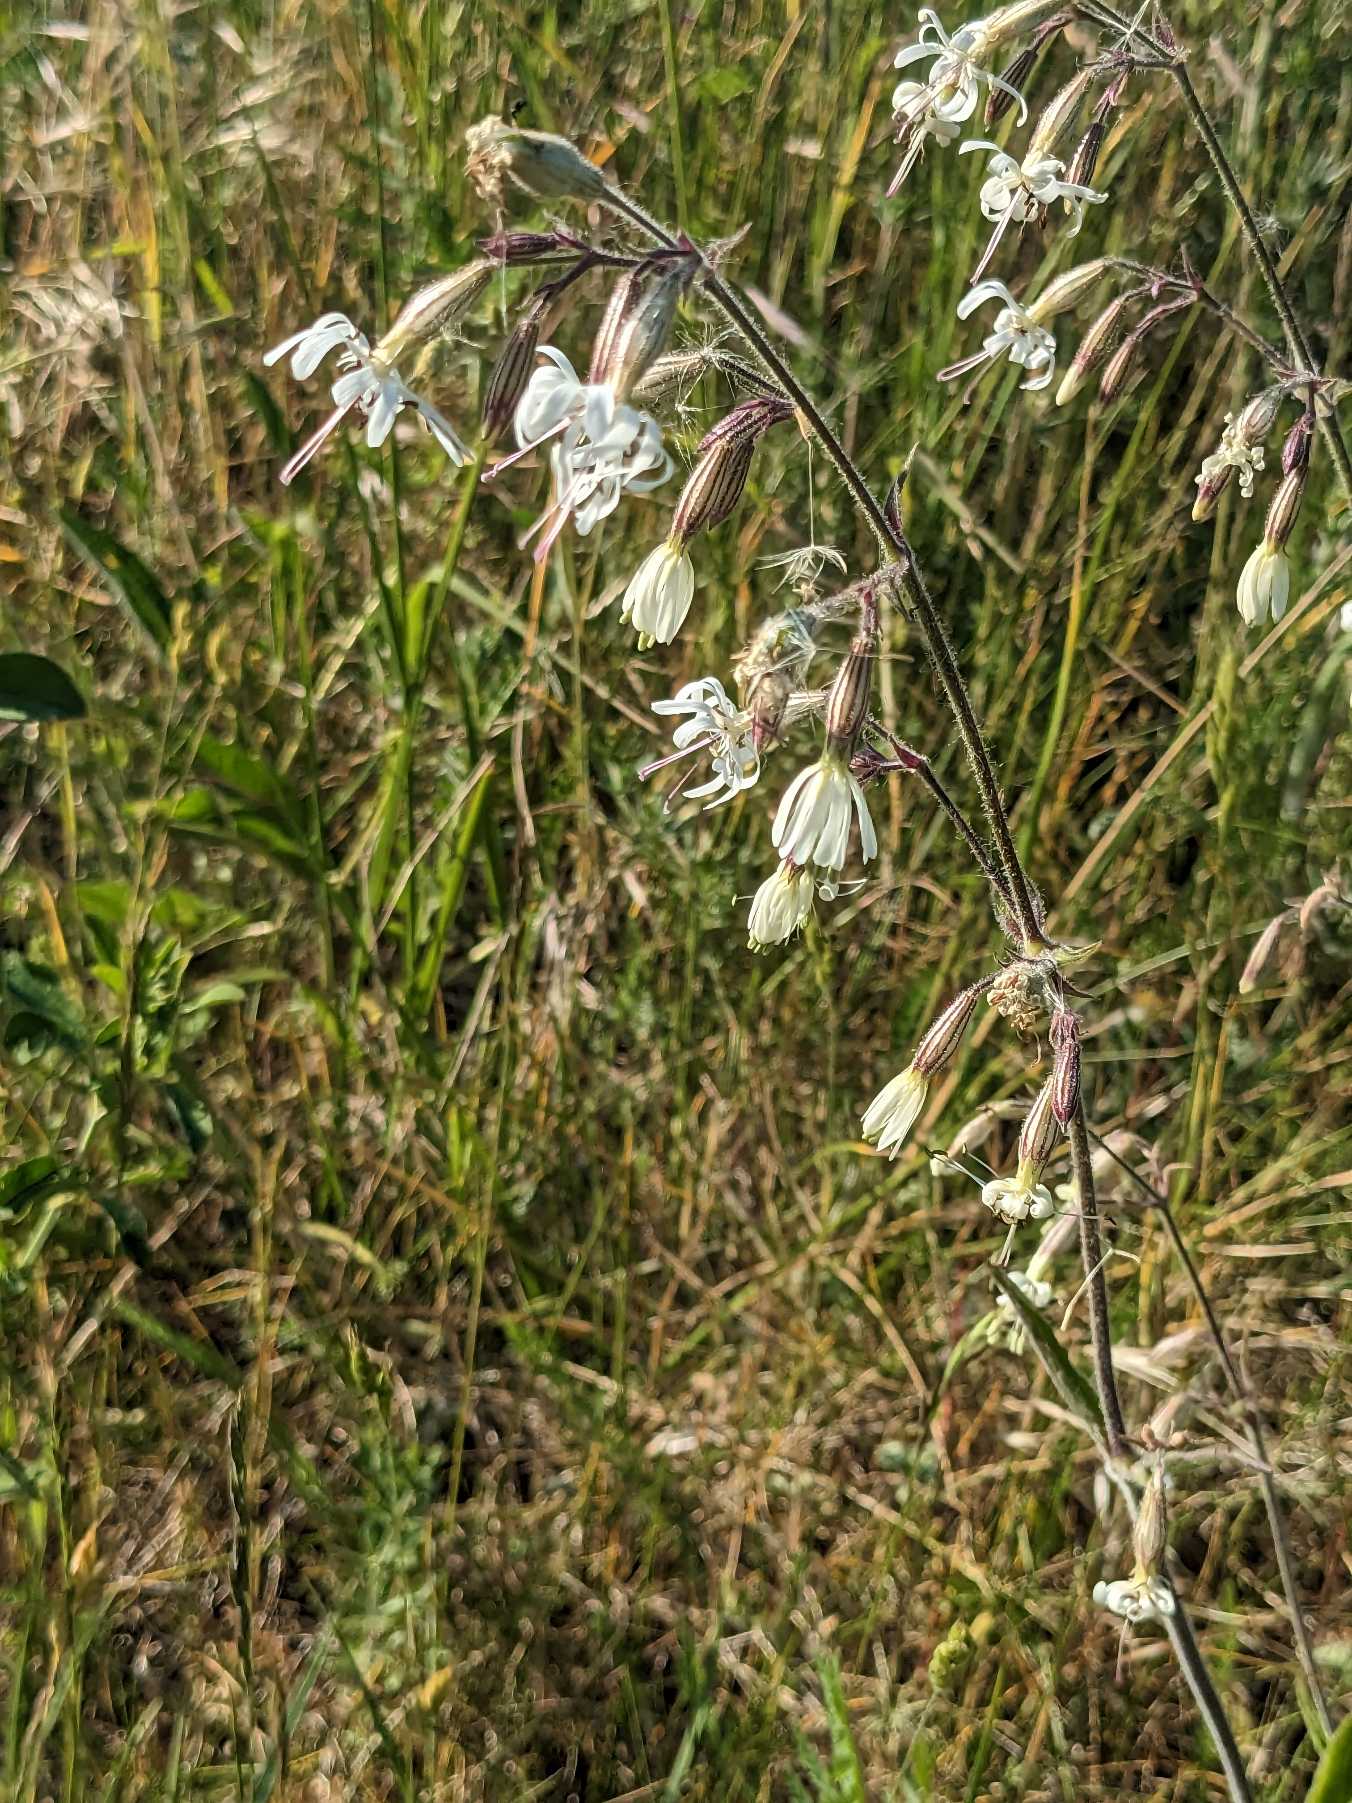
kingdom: Plantae
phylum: Tracheophyta
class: Magnoliopsida
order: Caryophyllales
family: Caryophyllaceae
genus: Silene
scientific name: Silene nutans
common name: Nikkende limurt
